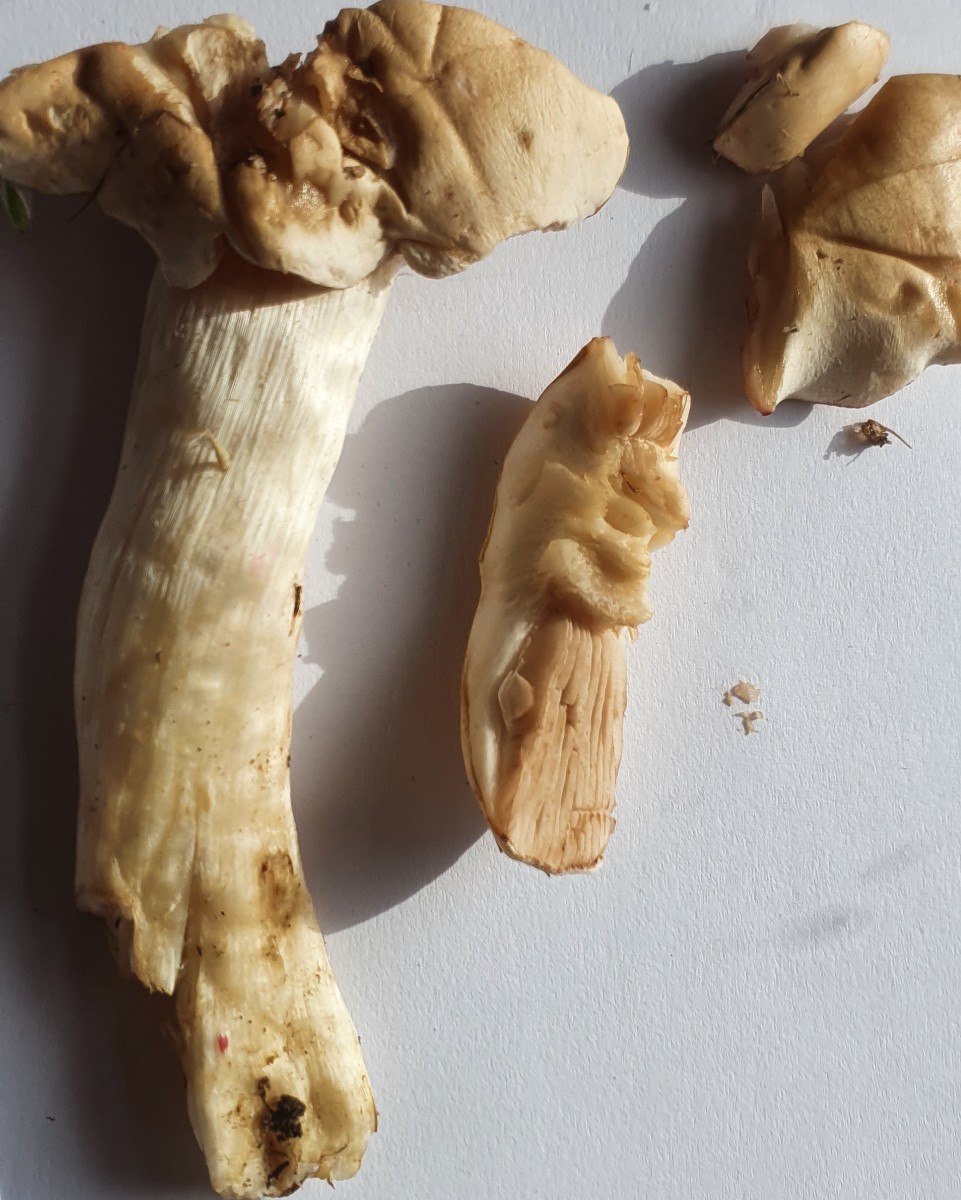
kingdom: Fungi
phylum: Basidiomycota
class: Agaricomycetes
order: Agaricales
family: Hymenogastraceae
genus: Hebeloma
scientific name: Hebeloma
